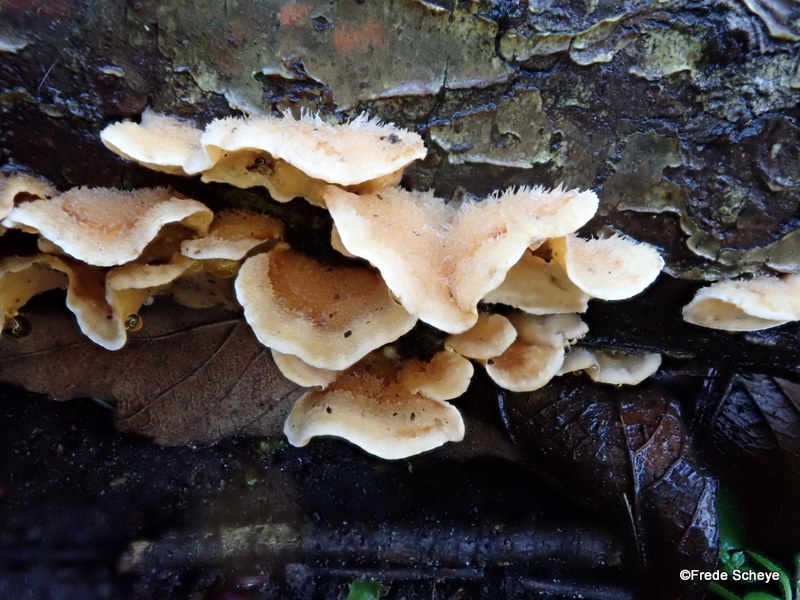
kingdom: Fungi
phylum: Basidiomycota
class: Agaricomycetes
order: Russulales
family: Stereaceae
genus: Stereum
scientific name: Stereum hirsutum
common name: håret lædersvamp
